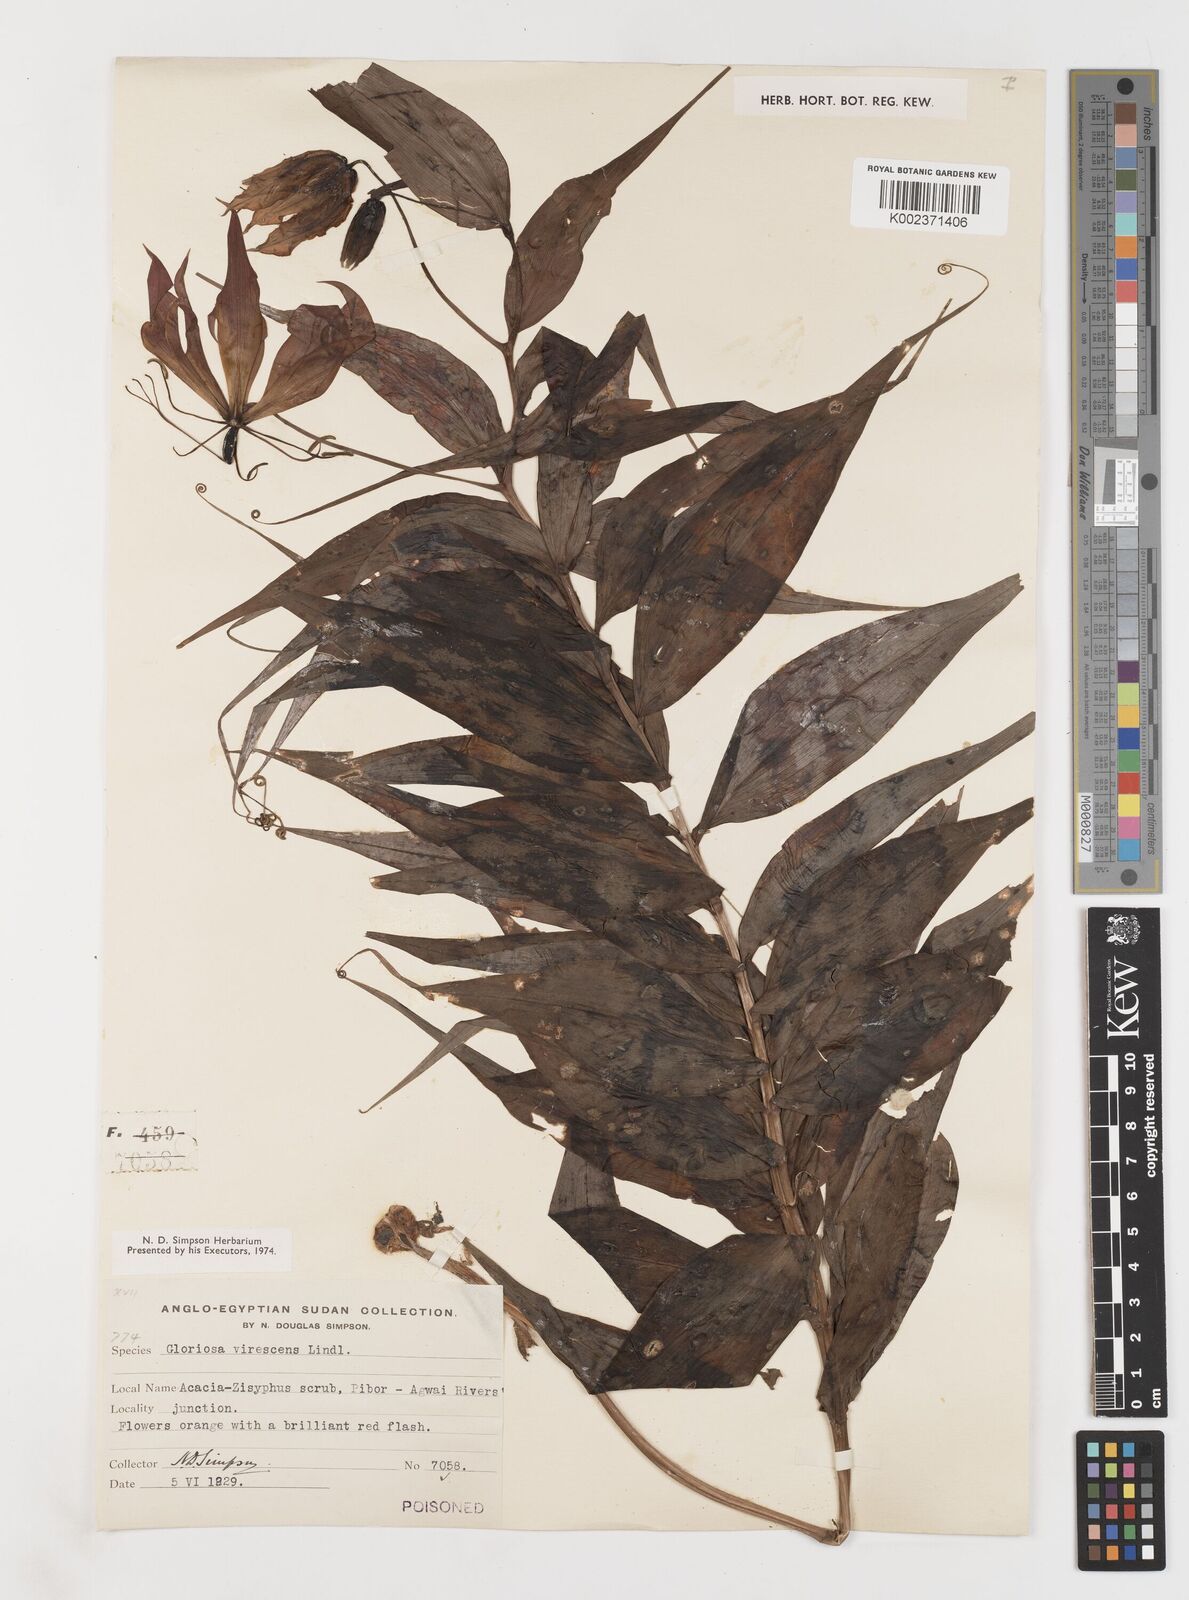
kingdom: Plantae
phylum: Tracheophyta
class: Liliopsida
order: Liliales
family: Colchicaceae
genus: Gloriosa
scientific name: Gloriosa simplex
